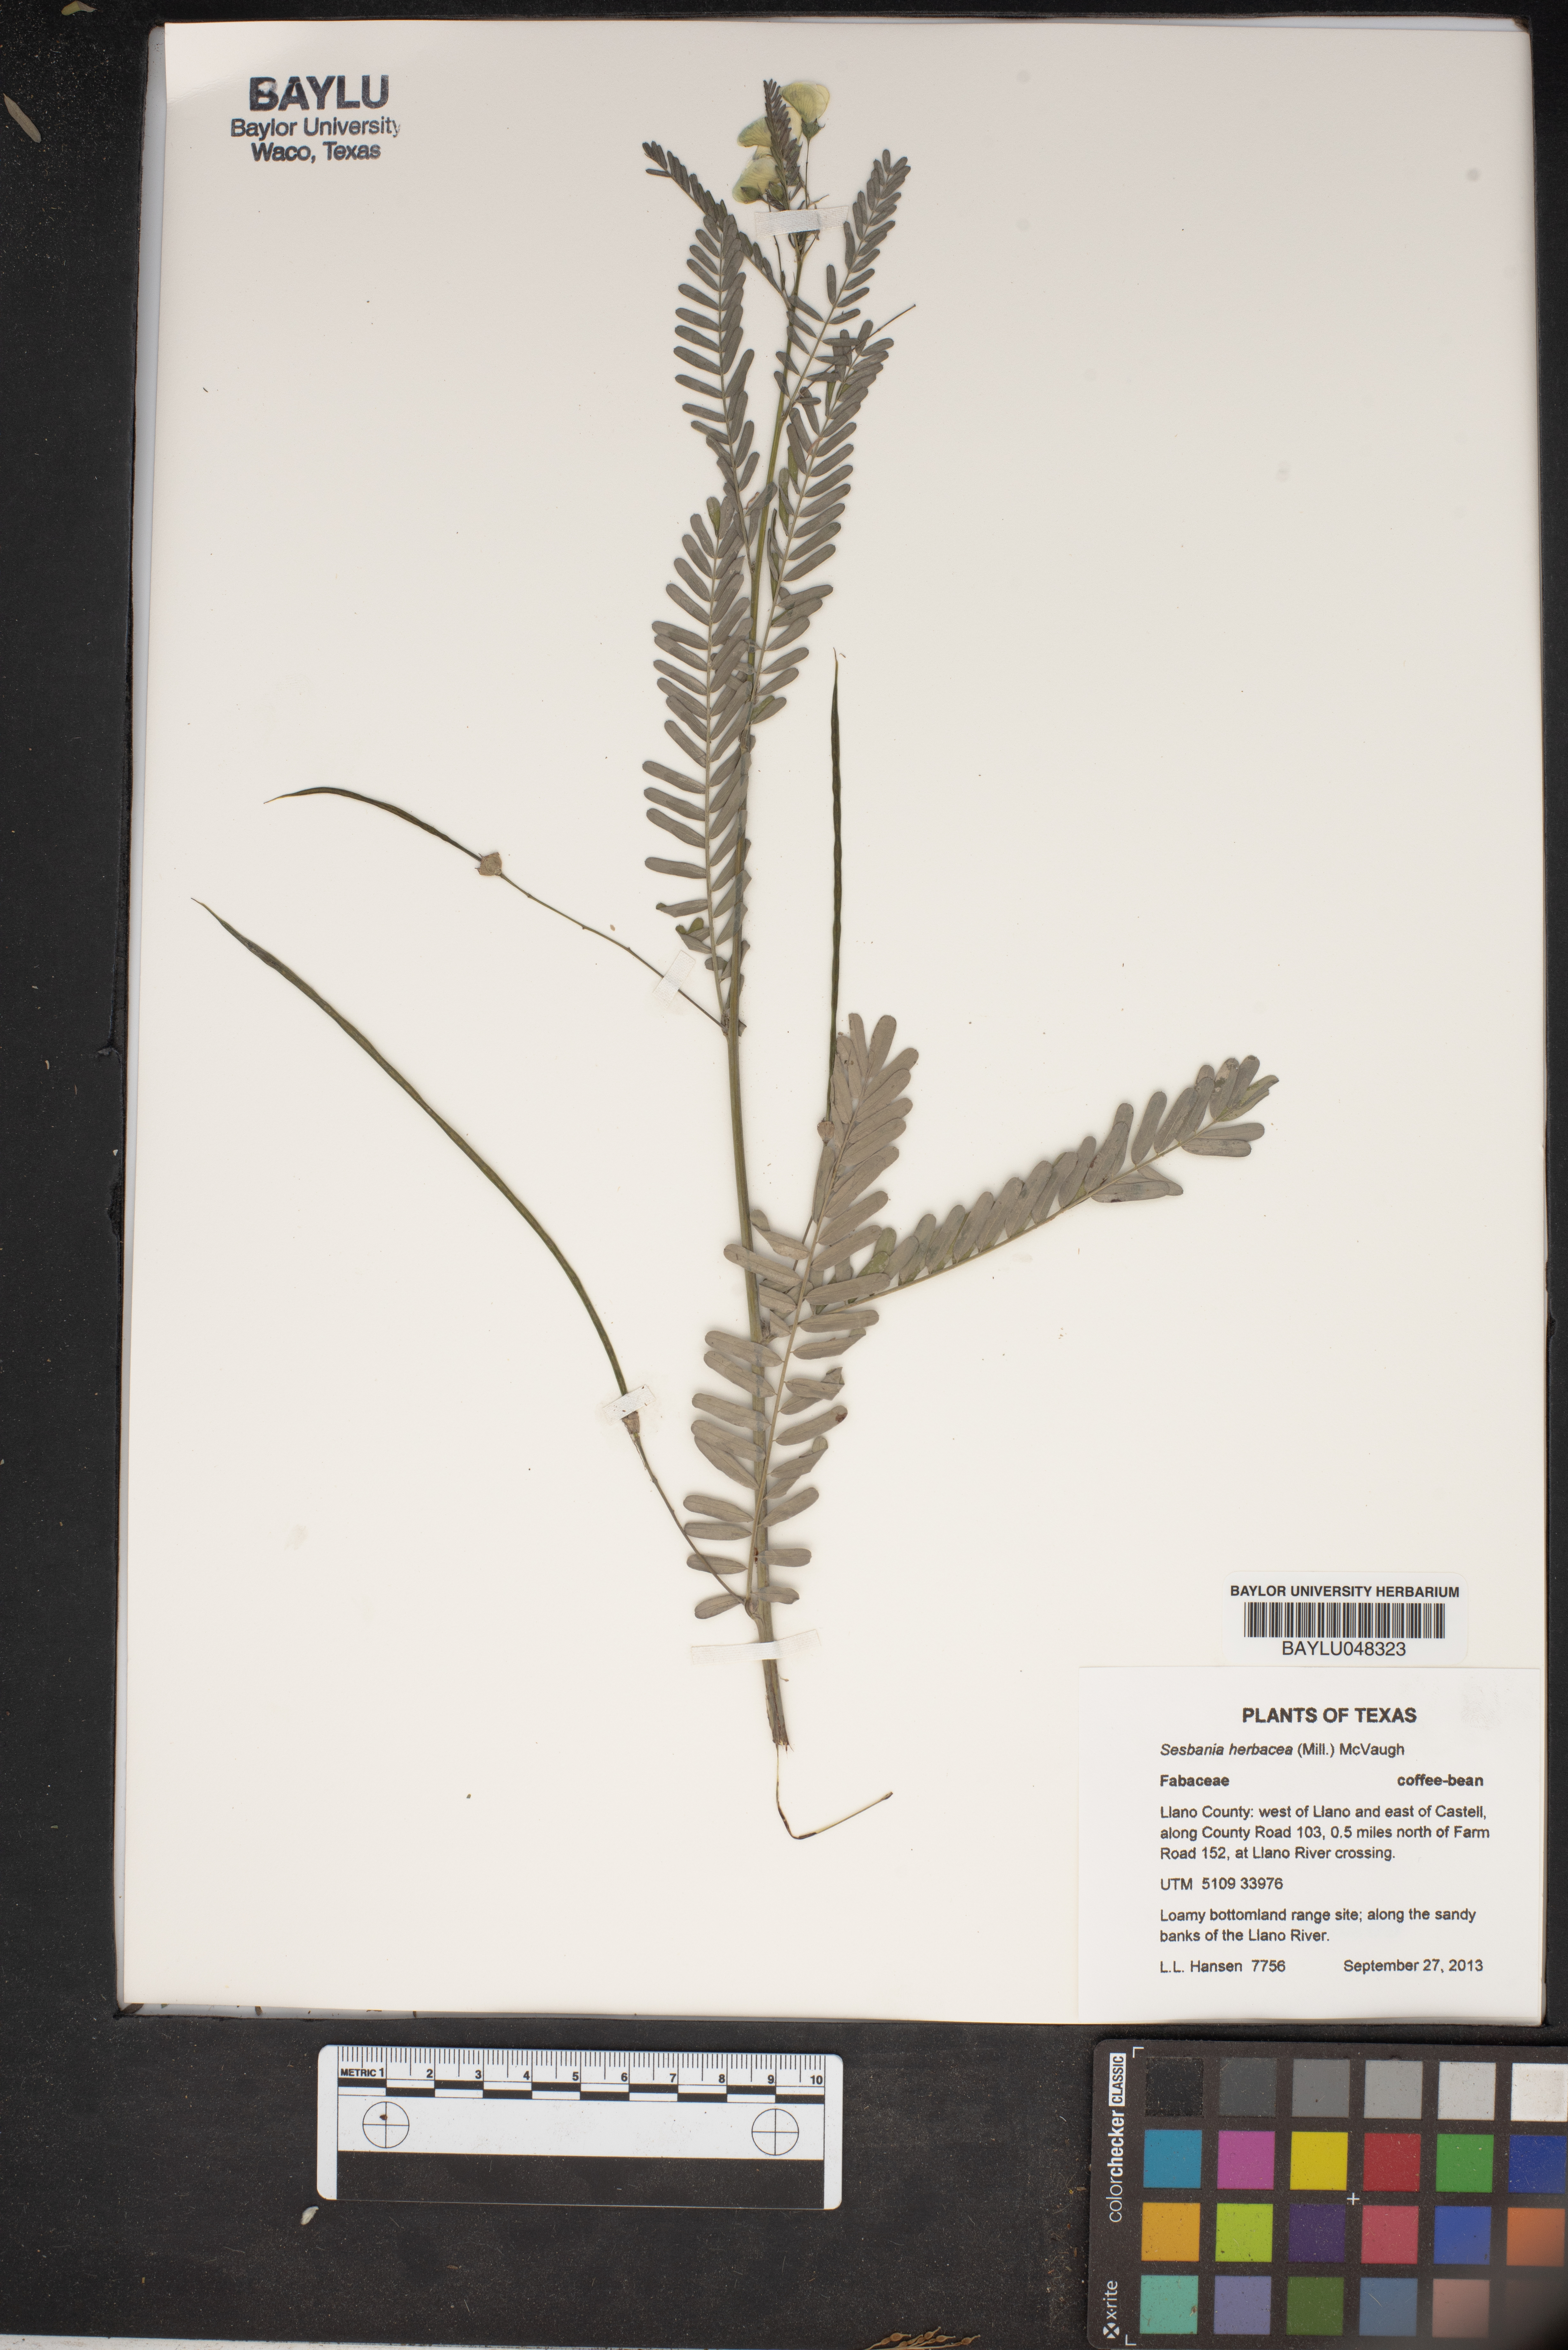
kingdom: Plantae
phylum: Tracheophyta
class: Magnoliopsida
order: Fabales
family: Fabaceae
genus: Sesbania
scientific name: Sesbania herbacea
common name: Bigpod sesbania
